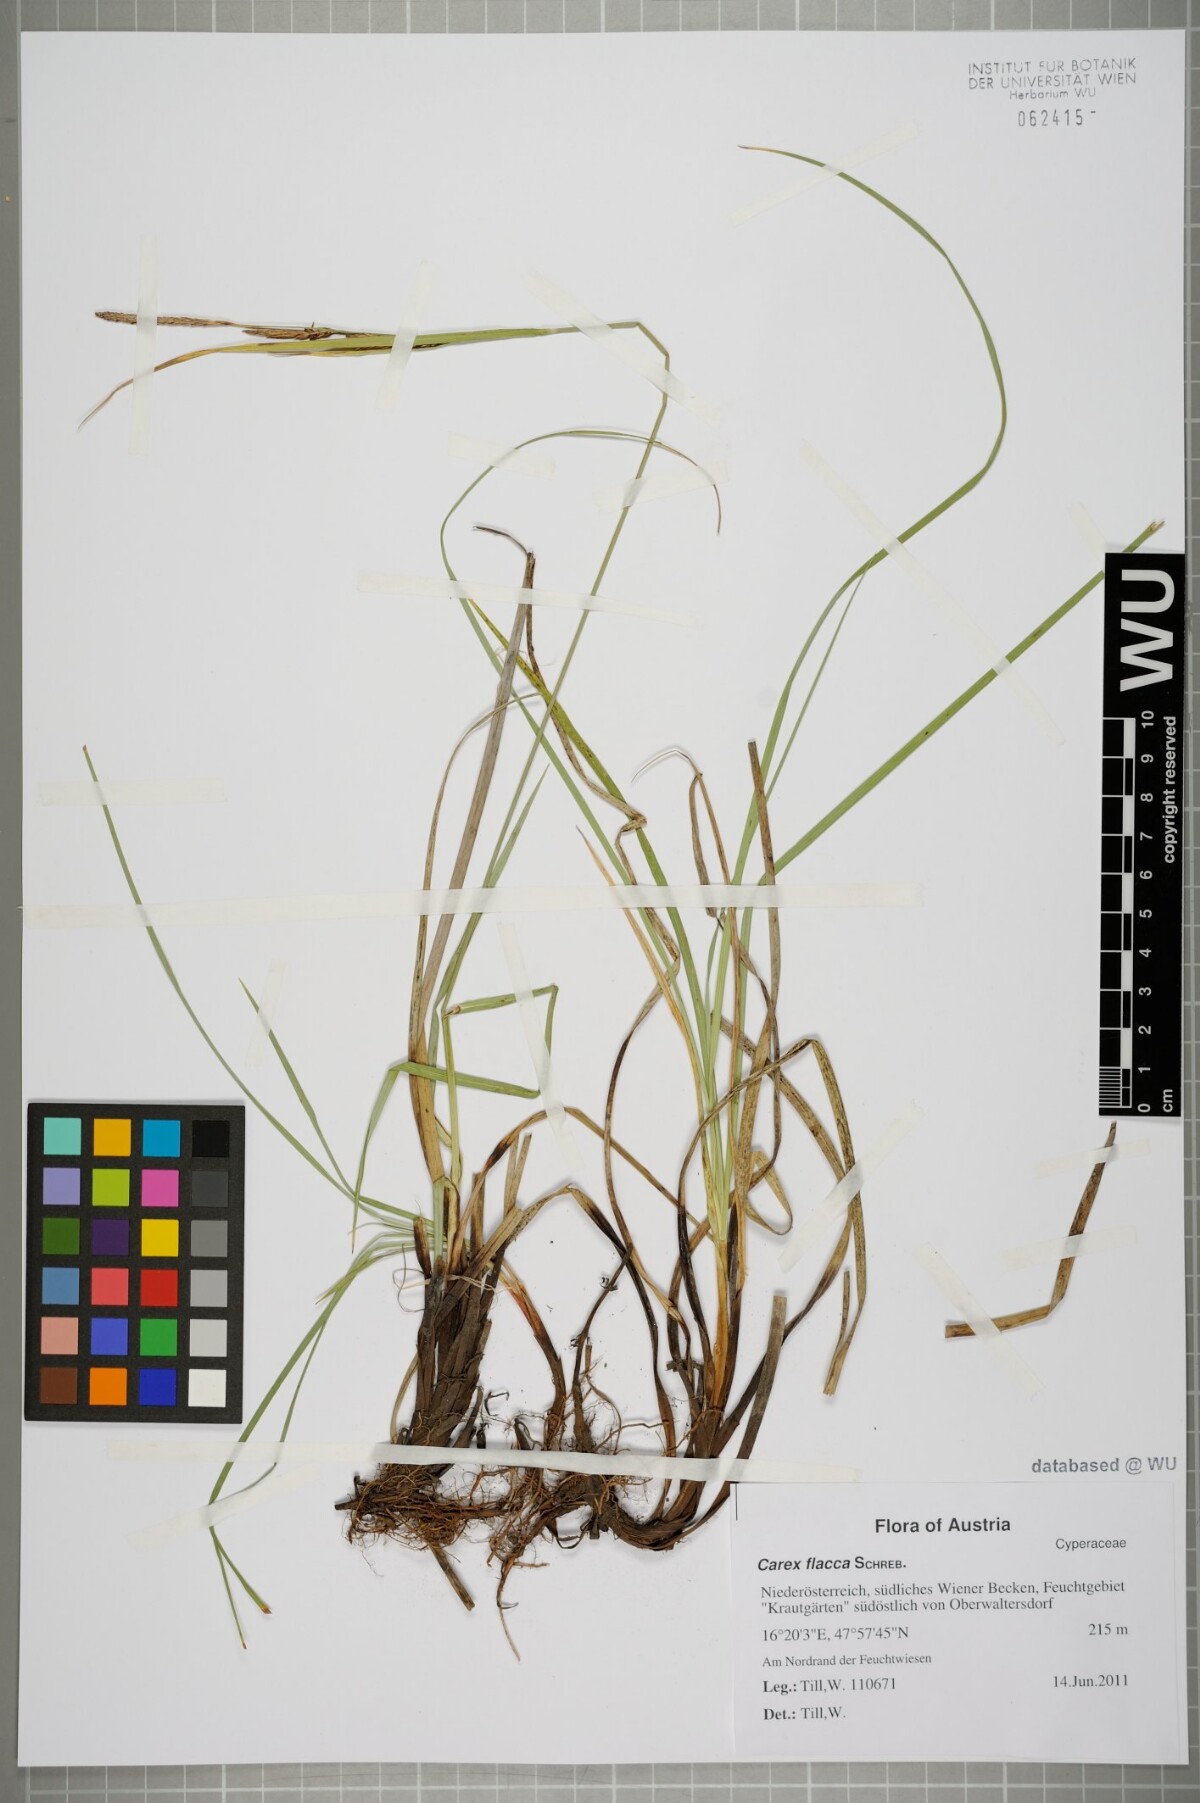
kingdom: Plantae
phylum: Tracheophyta
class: Liliopsida
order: Poales
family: Cyperaceae
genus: Carex
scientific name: Carex flacca
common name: Glaucous sedge
